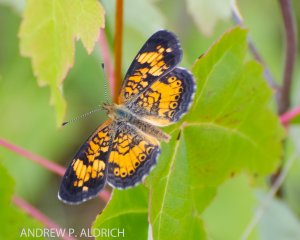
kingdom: Animalia
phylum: Arthropoda
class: Insecta
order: Lepidoptera
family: Nymphalidae
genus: Phyciodes
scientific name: Phyciodes
